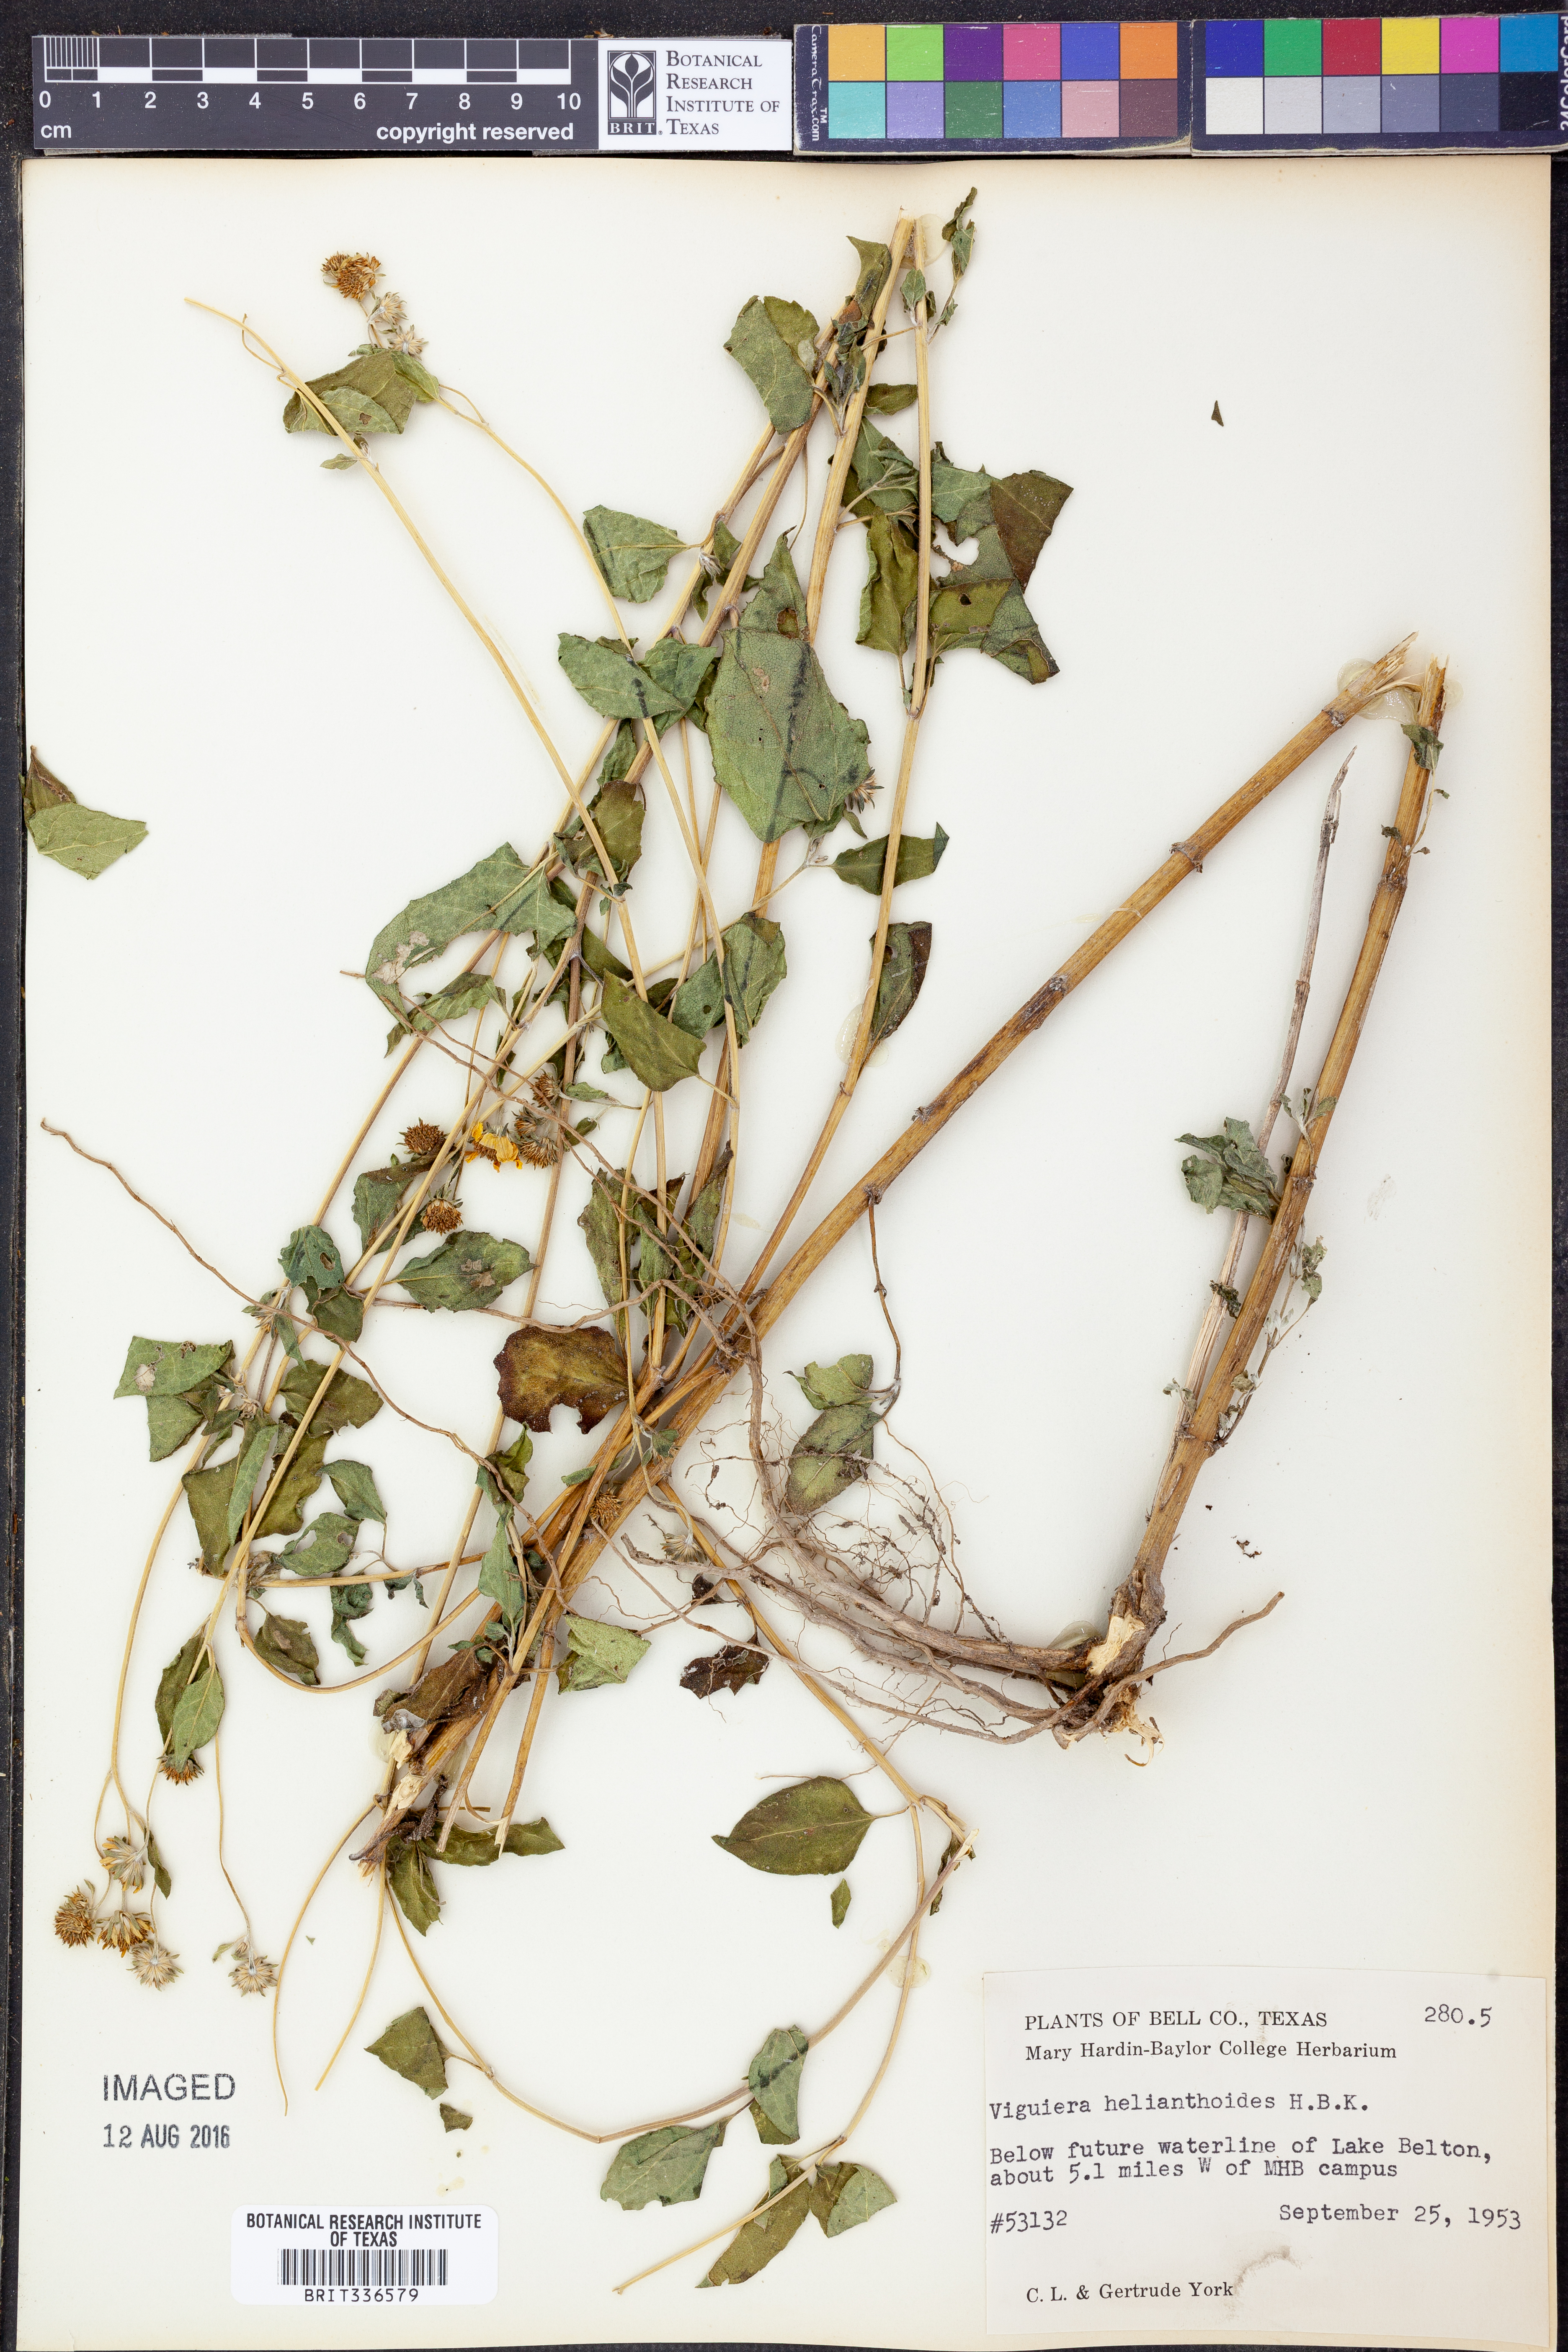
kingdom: Plantae
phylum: Tracheophyta
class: Magnoliopsida
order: Asterales
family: Asteraceae
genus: Viguiera
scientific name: Viguiera dentata
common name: Toothleaf
